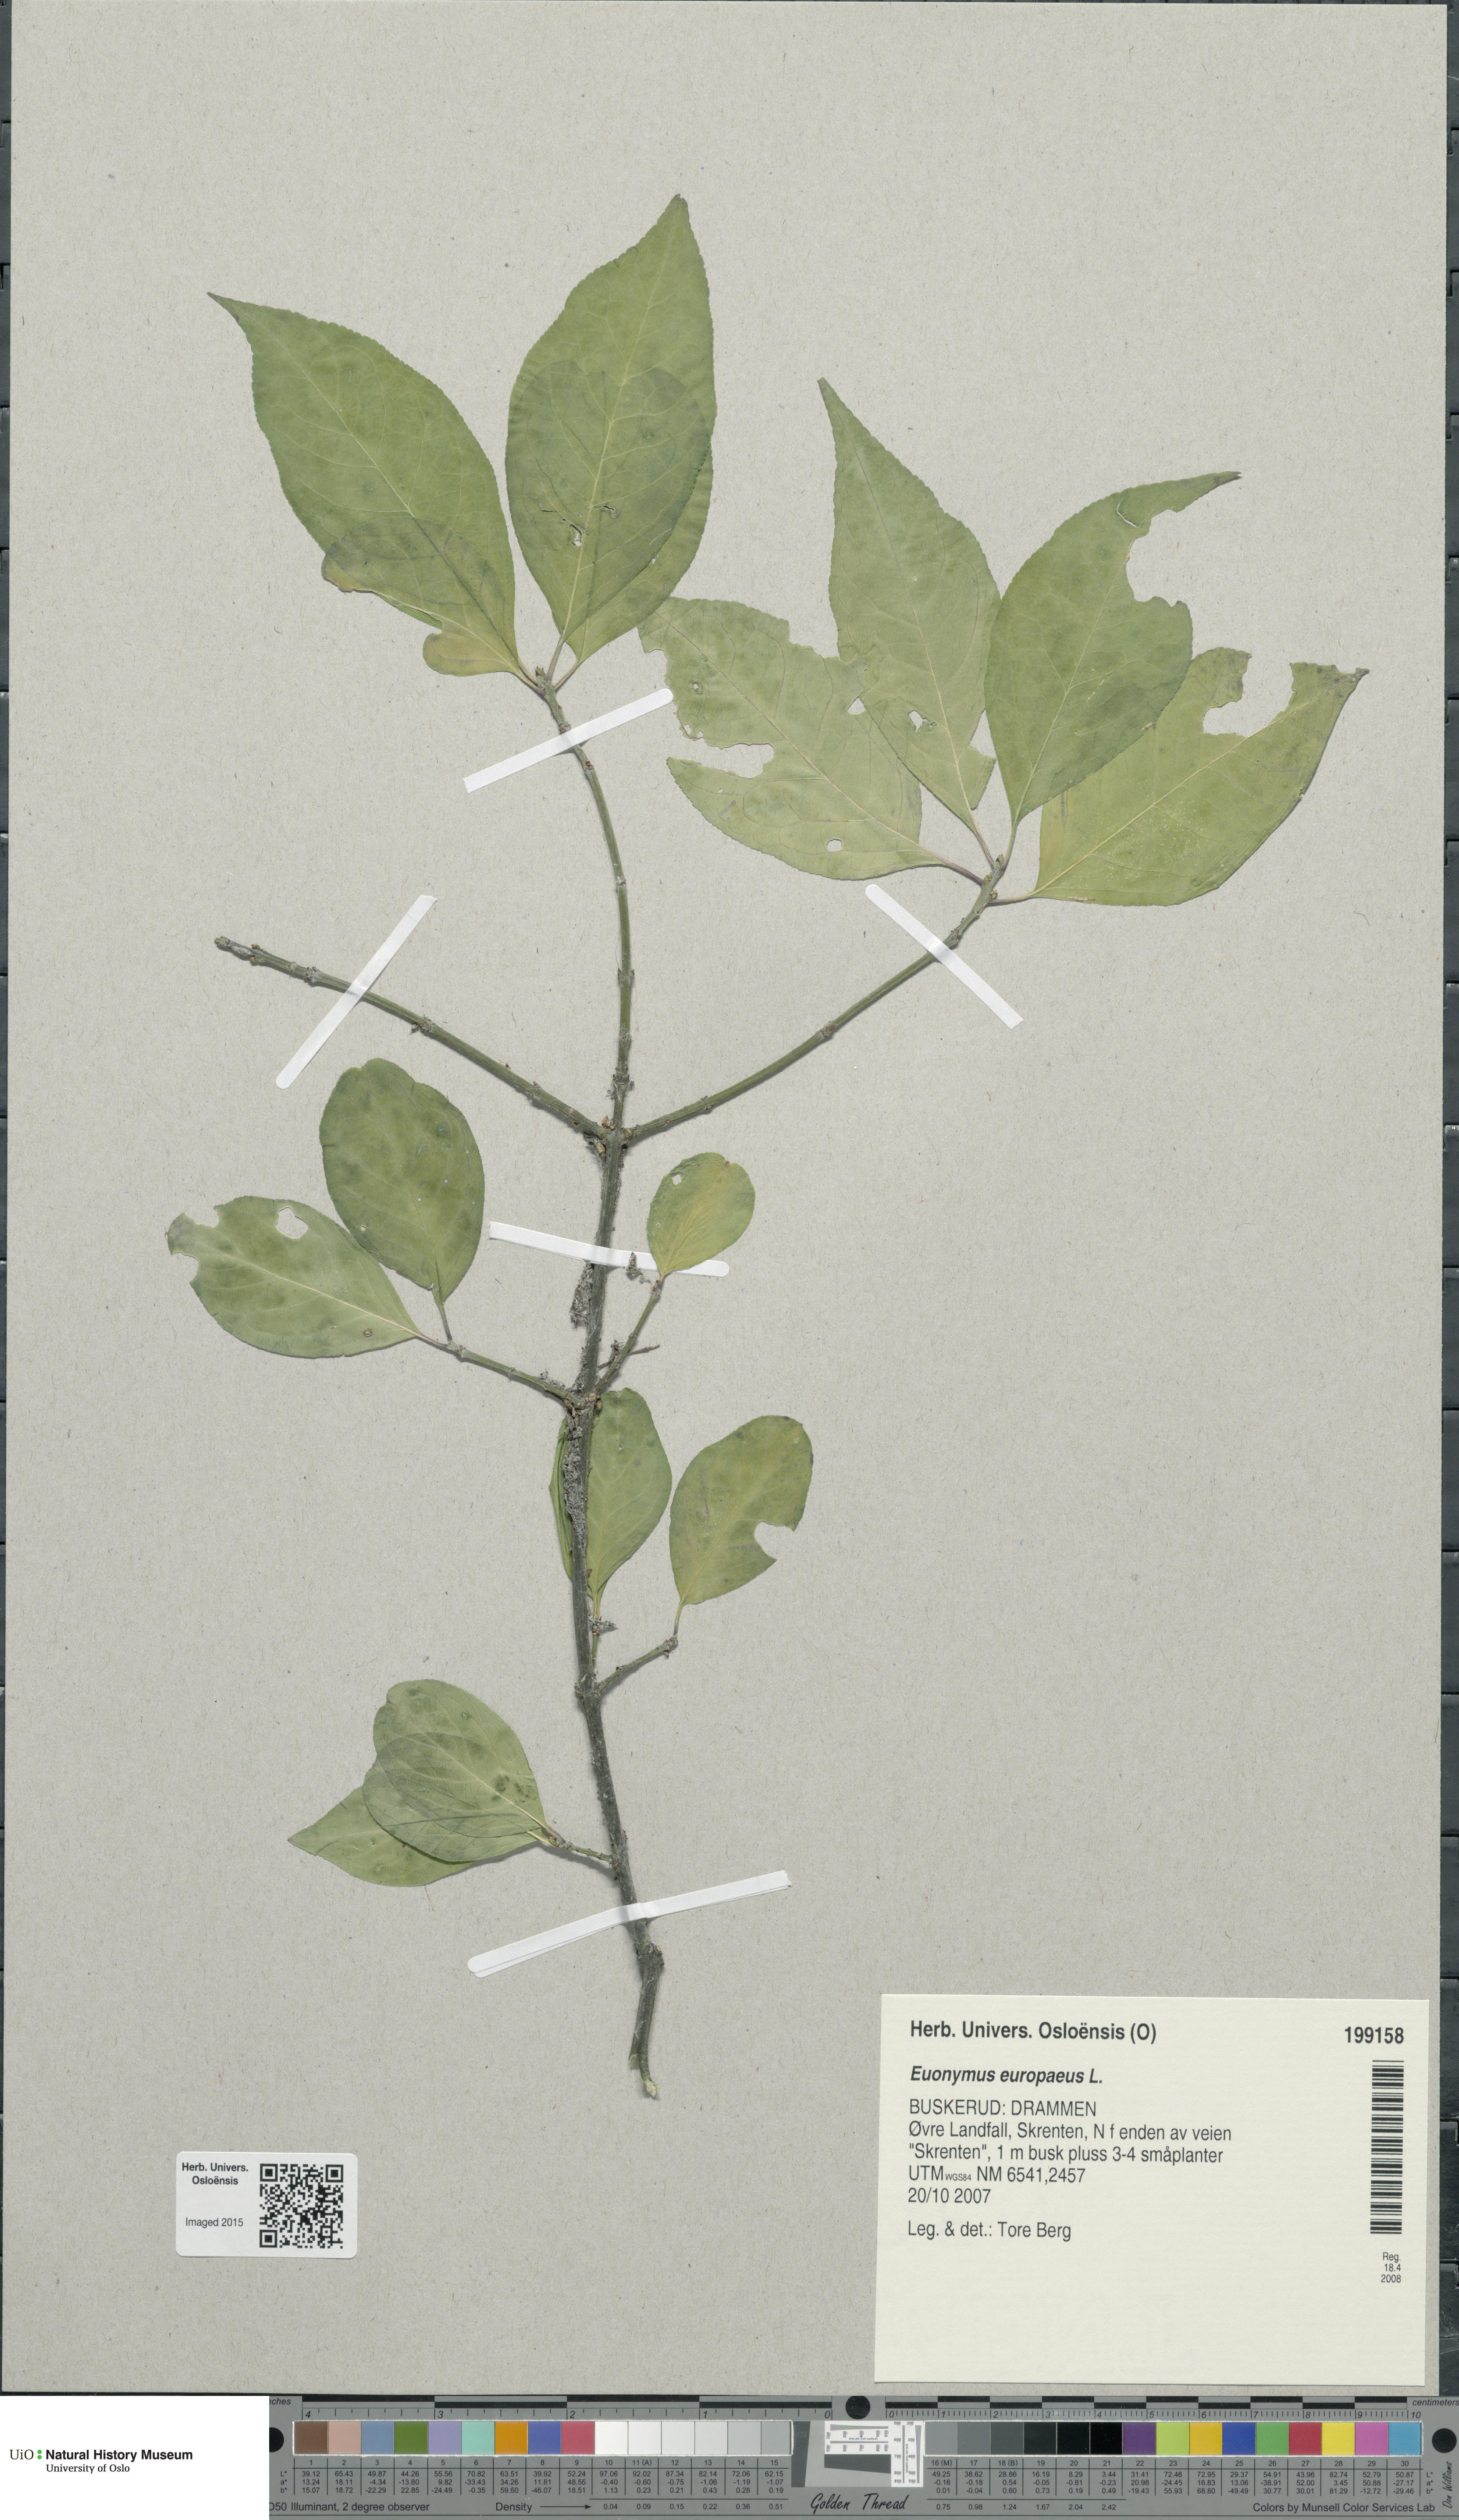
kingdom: Plantae
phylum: Tracheophyta
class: Magnoliopsida
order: Celastrales
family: Celastraceae
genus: Euonymus
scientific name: Euonymus europaeus
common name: Spindle
